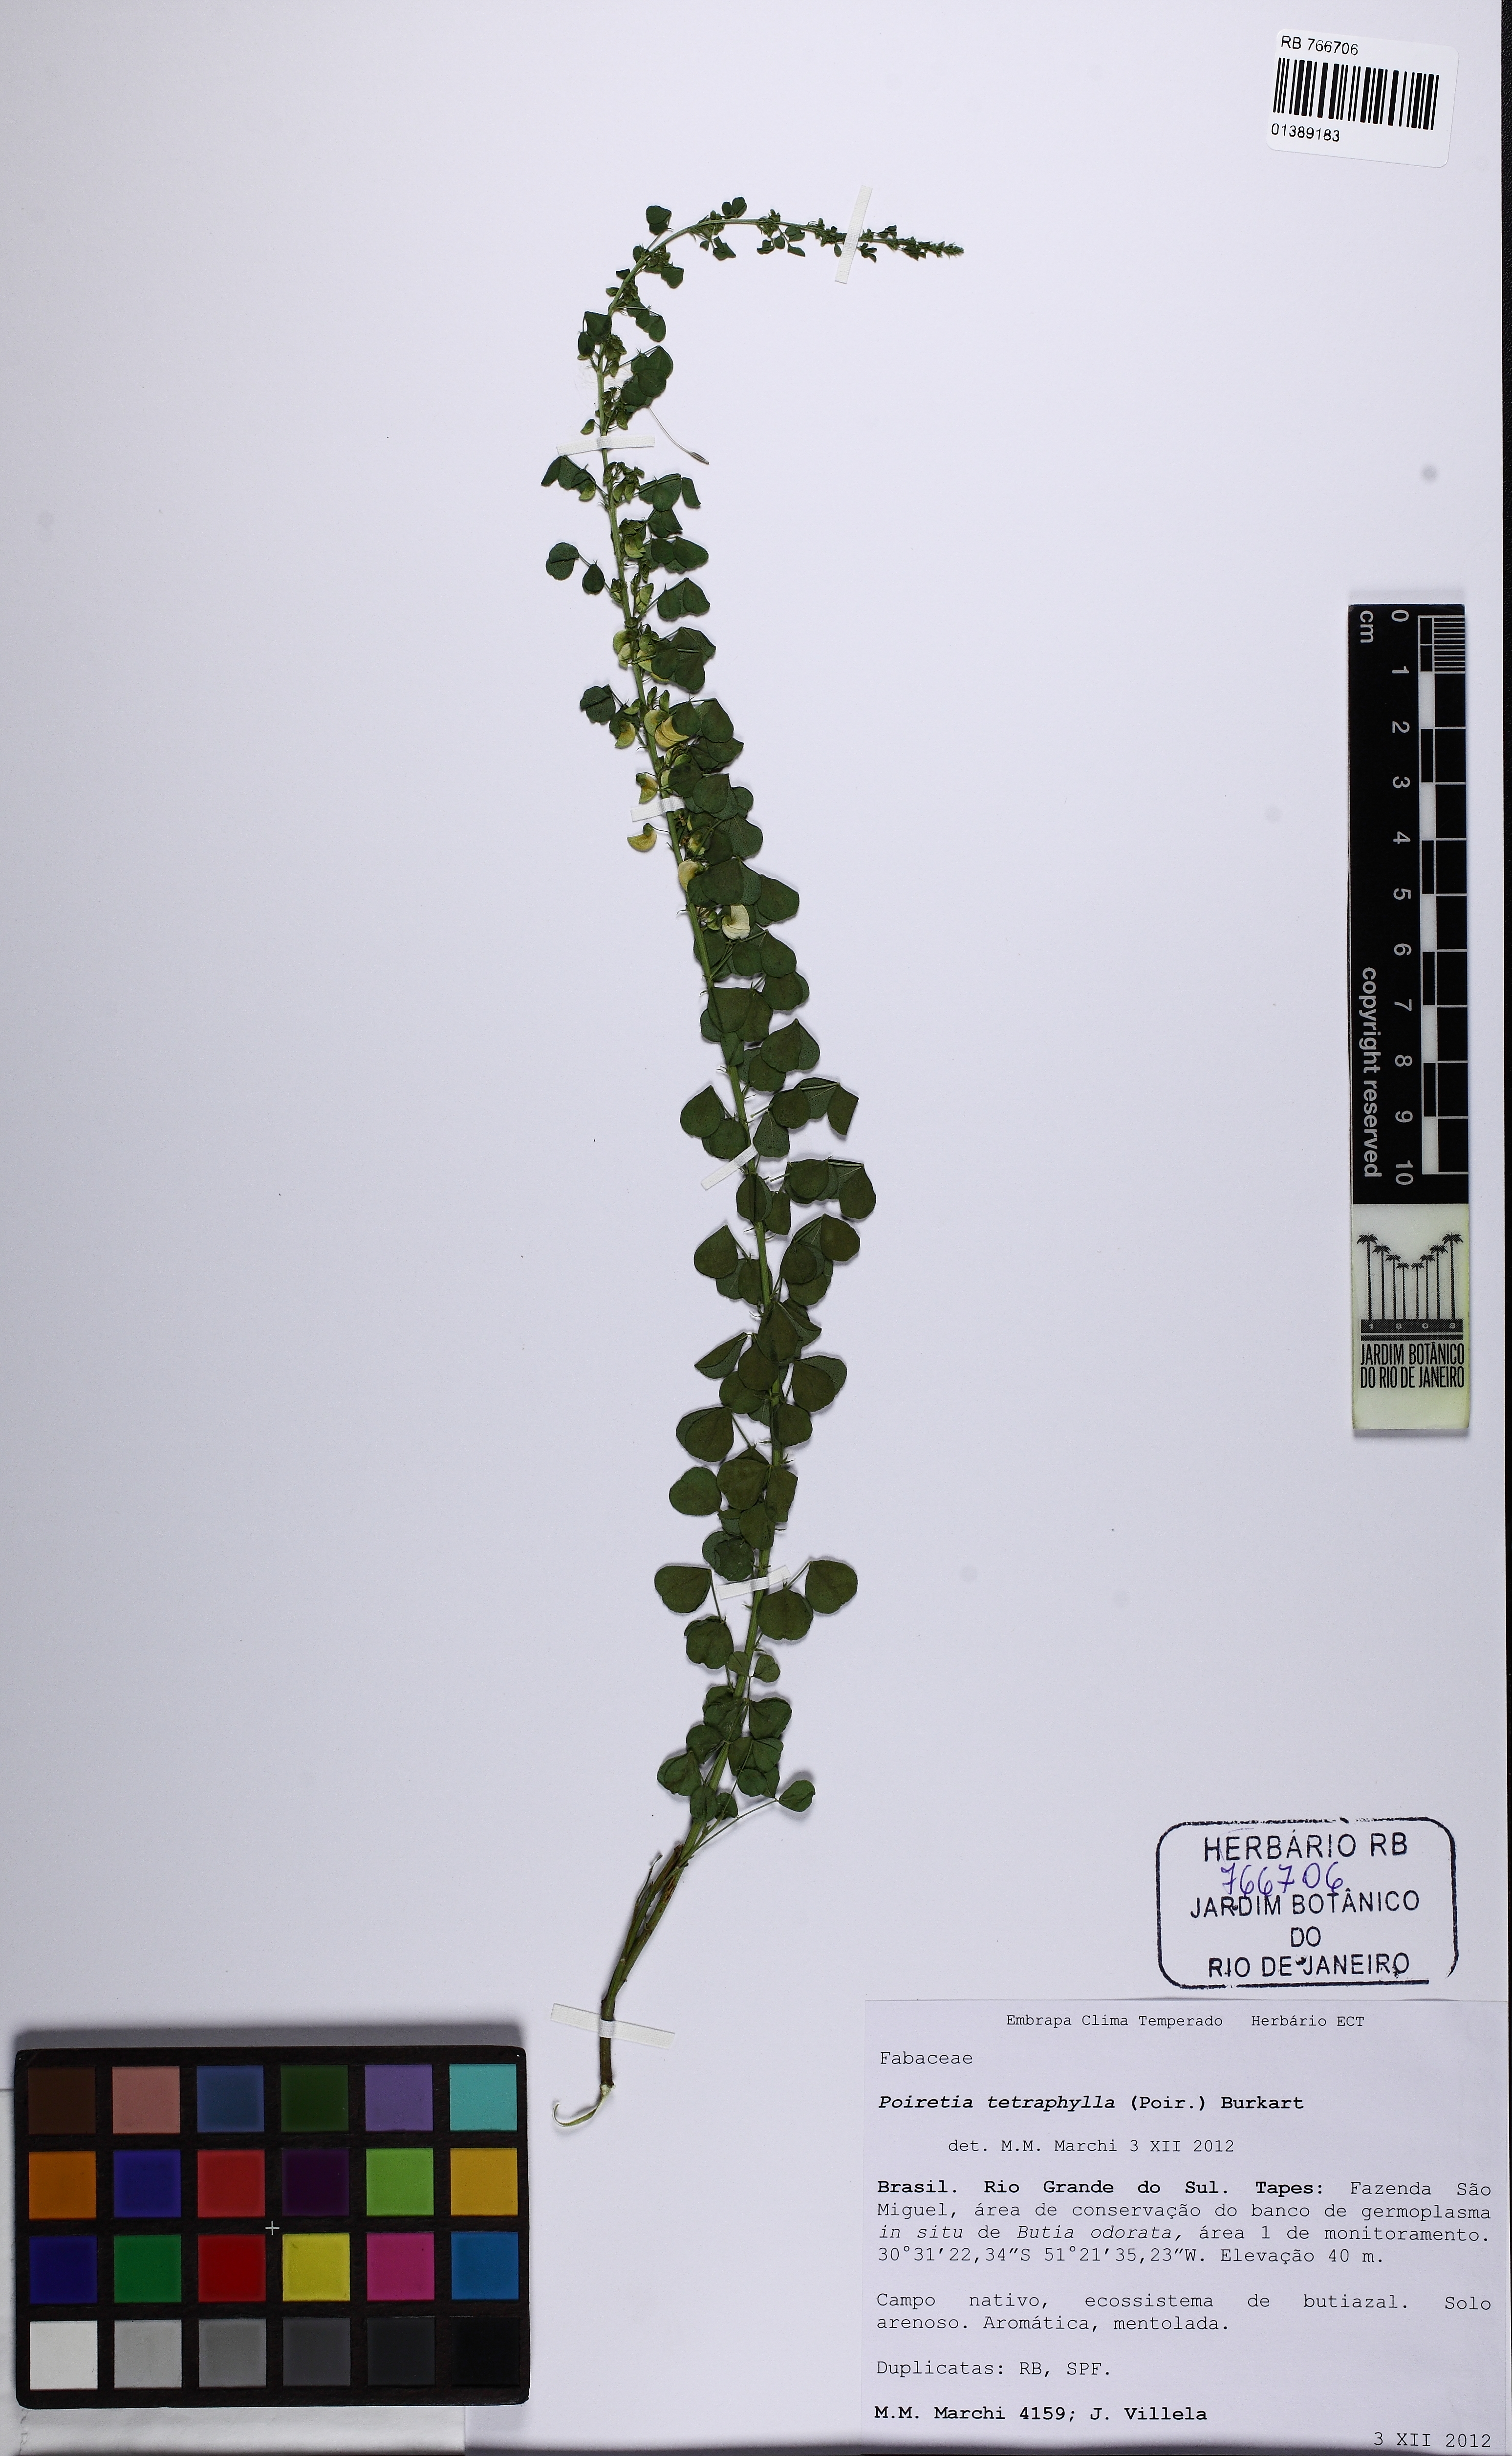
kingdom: Plantae
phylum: Tracheophyta
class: Magnoliopsida
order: Fabales
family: Fabaceae
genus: Poiretia
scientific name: Poiretia tetraphylla
